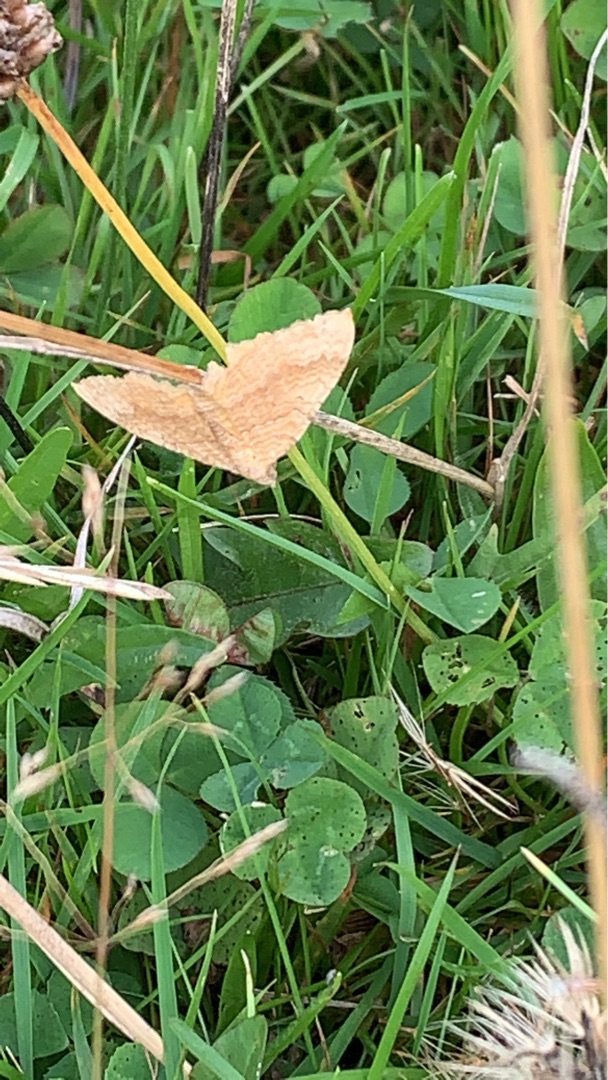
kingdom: Animalia
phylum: Arthropoda
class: Insecta
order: Lepidoptera
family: Geometridae
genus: Camptogramma
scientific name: Camptogramma bilineata
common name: Okkergul bladmåler
